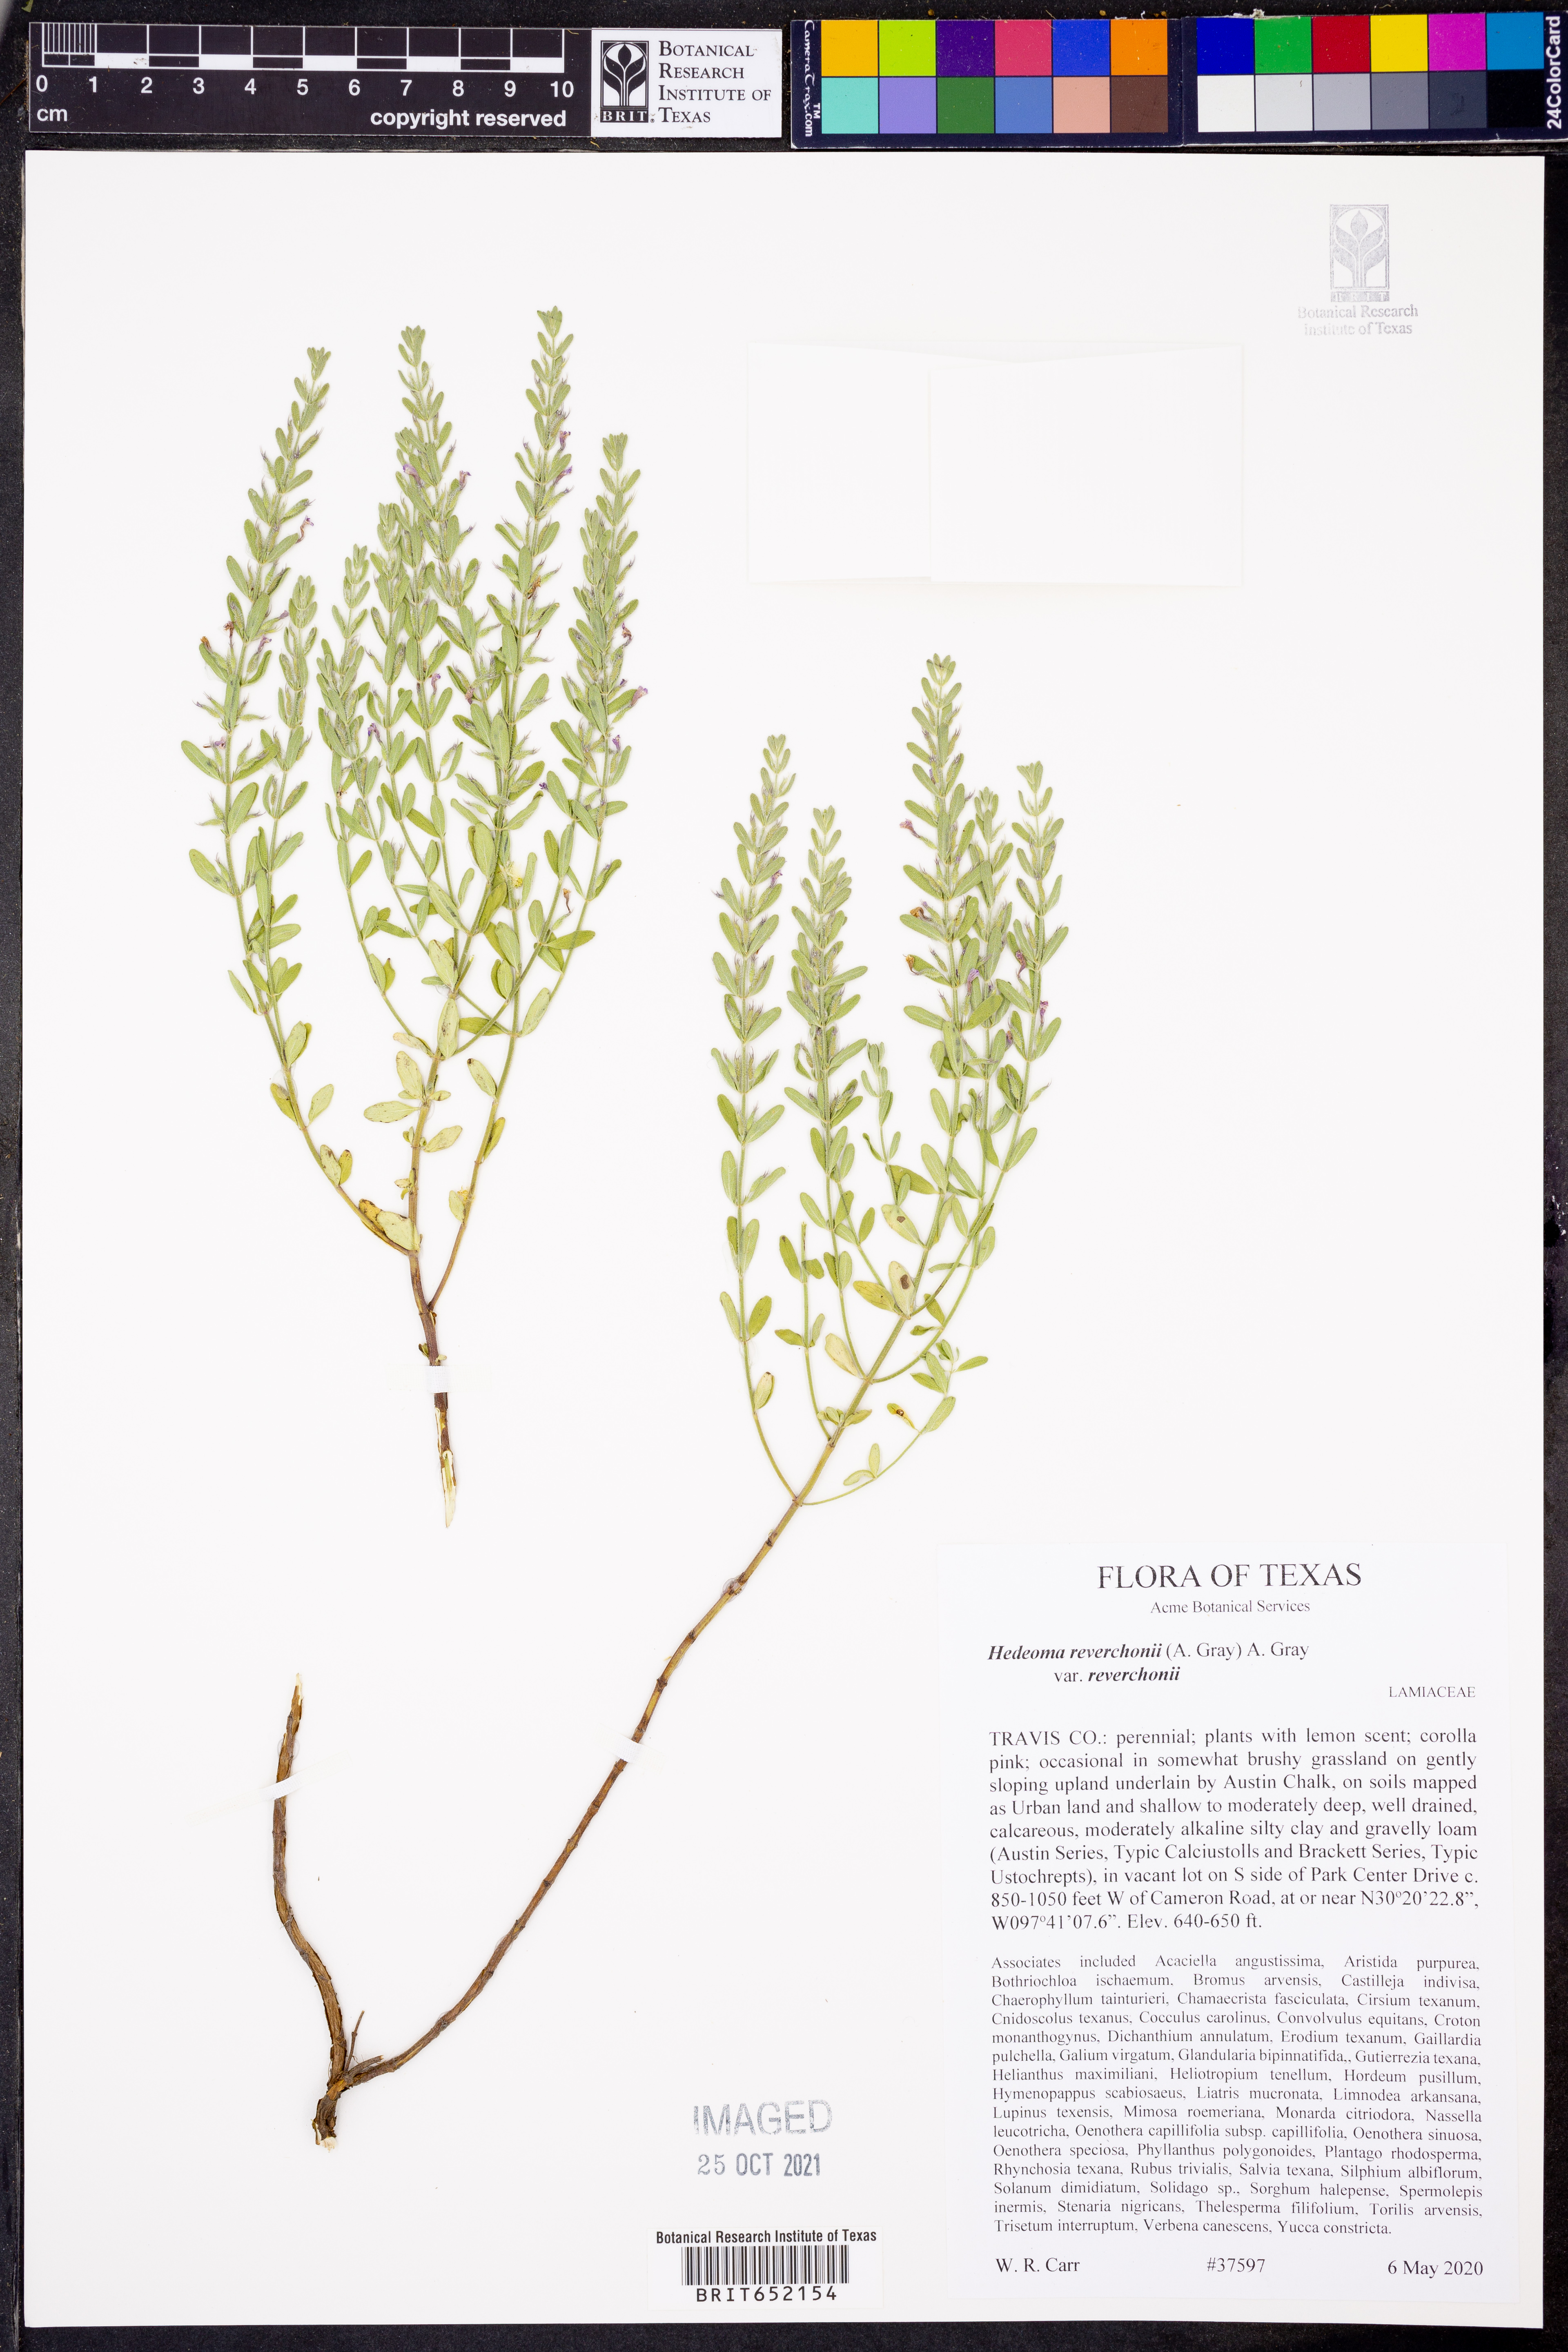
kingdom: Plantae
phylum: Tracheophyta
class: Magnoliopsida
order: Lamiales
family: Lamiaceae
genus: Hedeoma
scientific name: Hedeoma reverchonii
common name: Reverchon's false penny-royal
